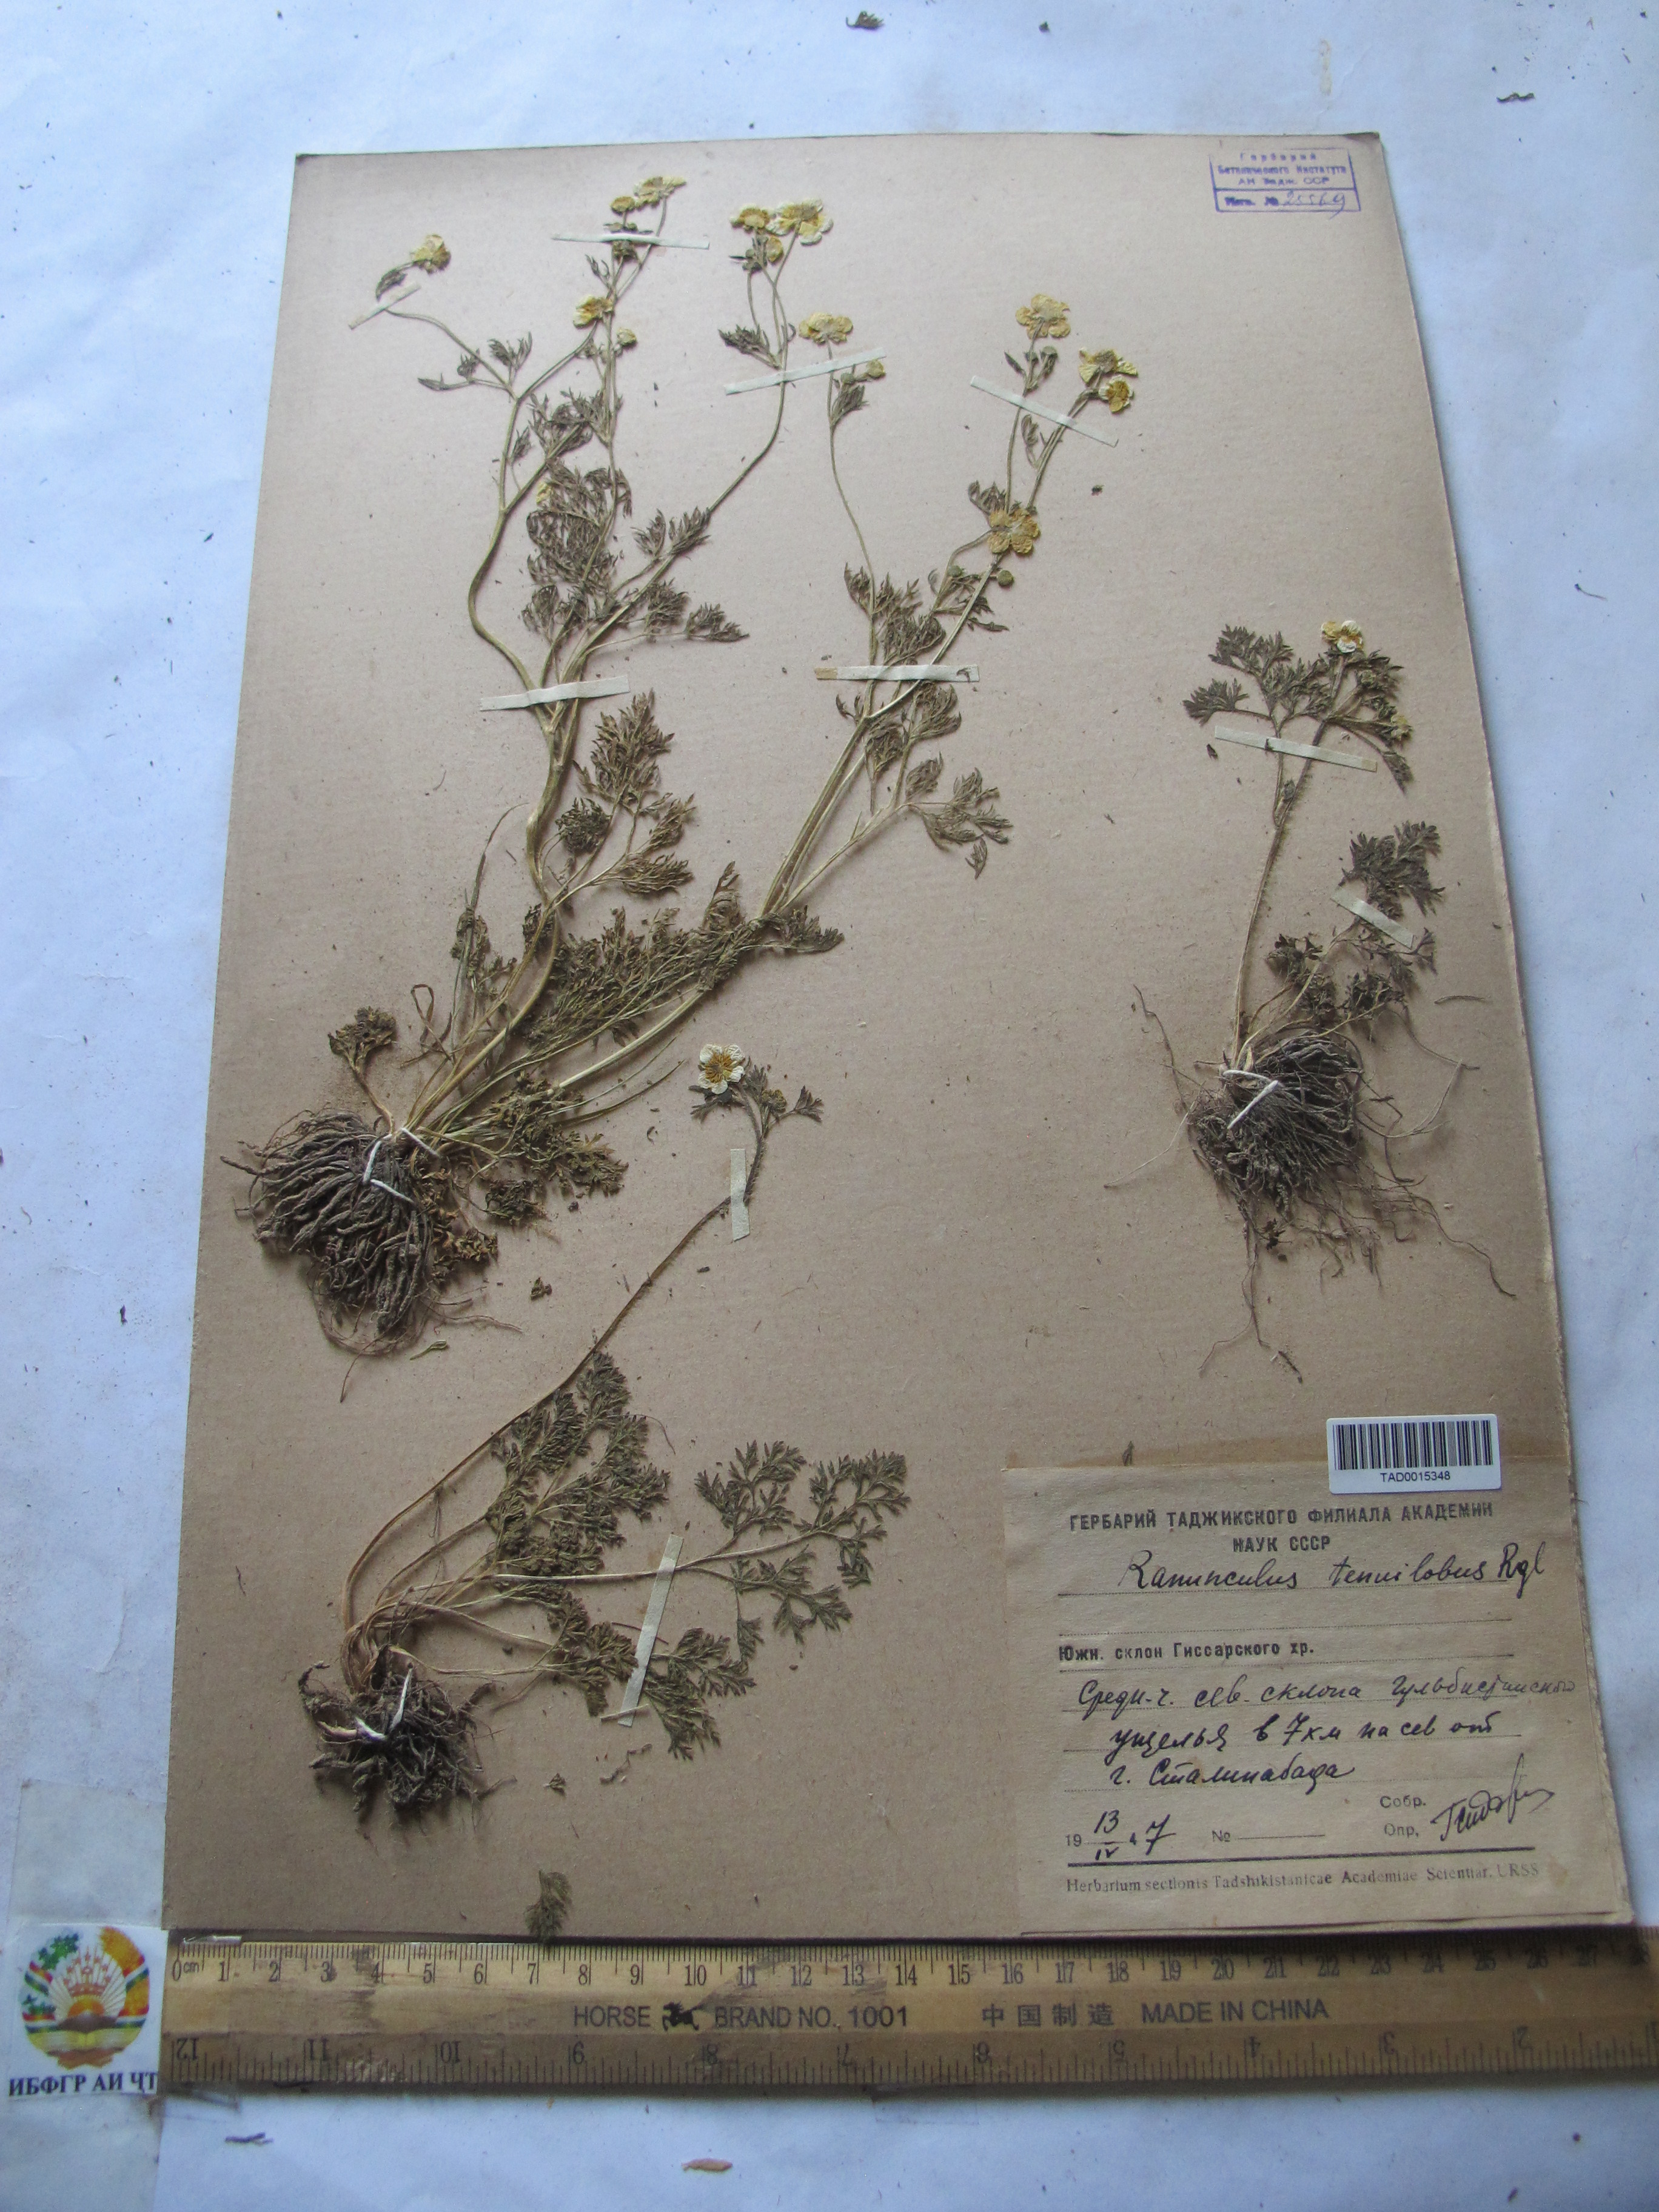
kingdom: Plantae
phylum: Tracheophyta
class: Magnoliopsida
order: Ranunculales
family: Ranunculaceae
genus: Ranunculus
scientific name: Ranunculus tenuilobus
